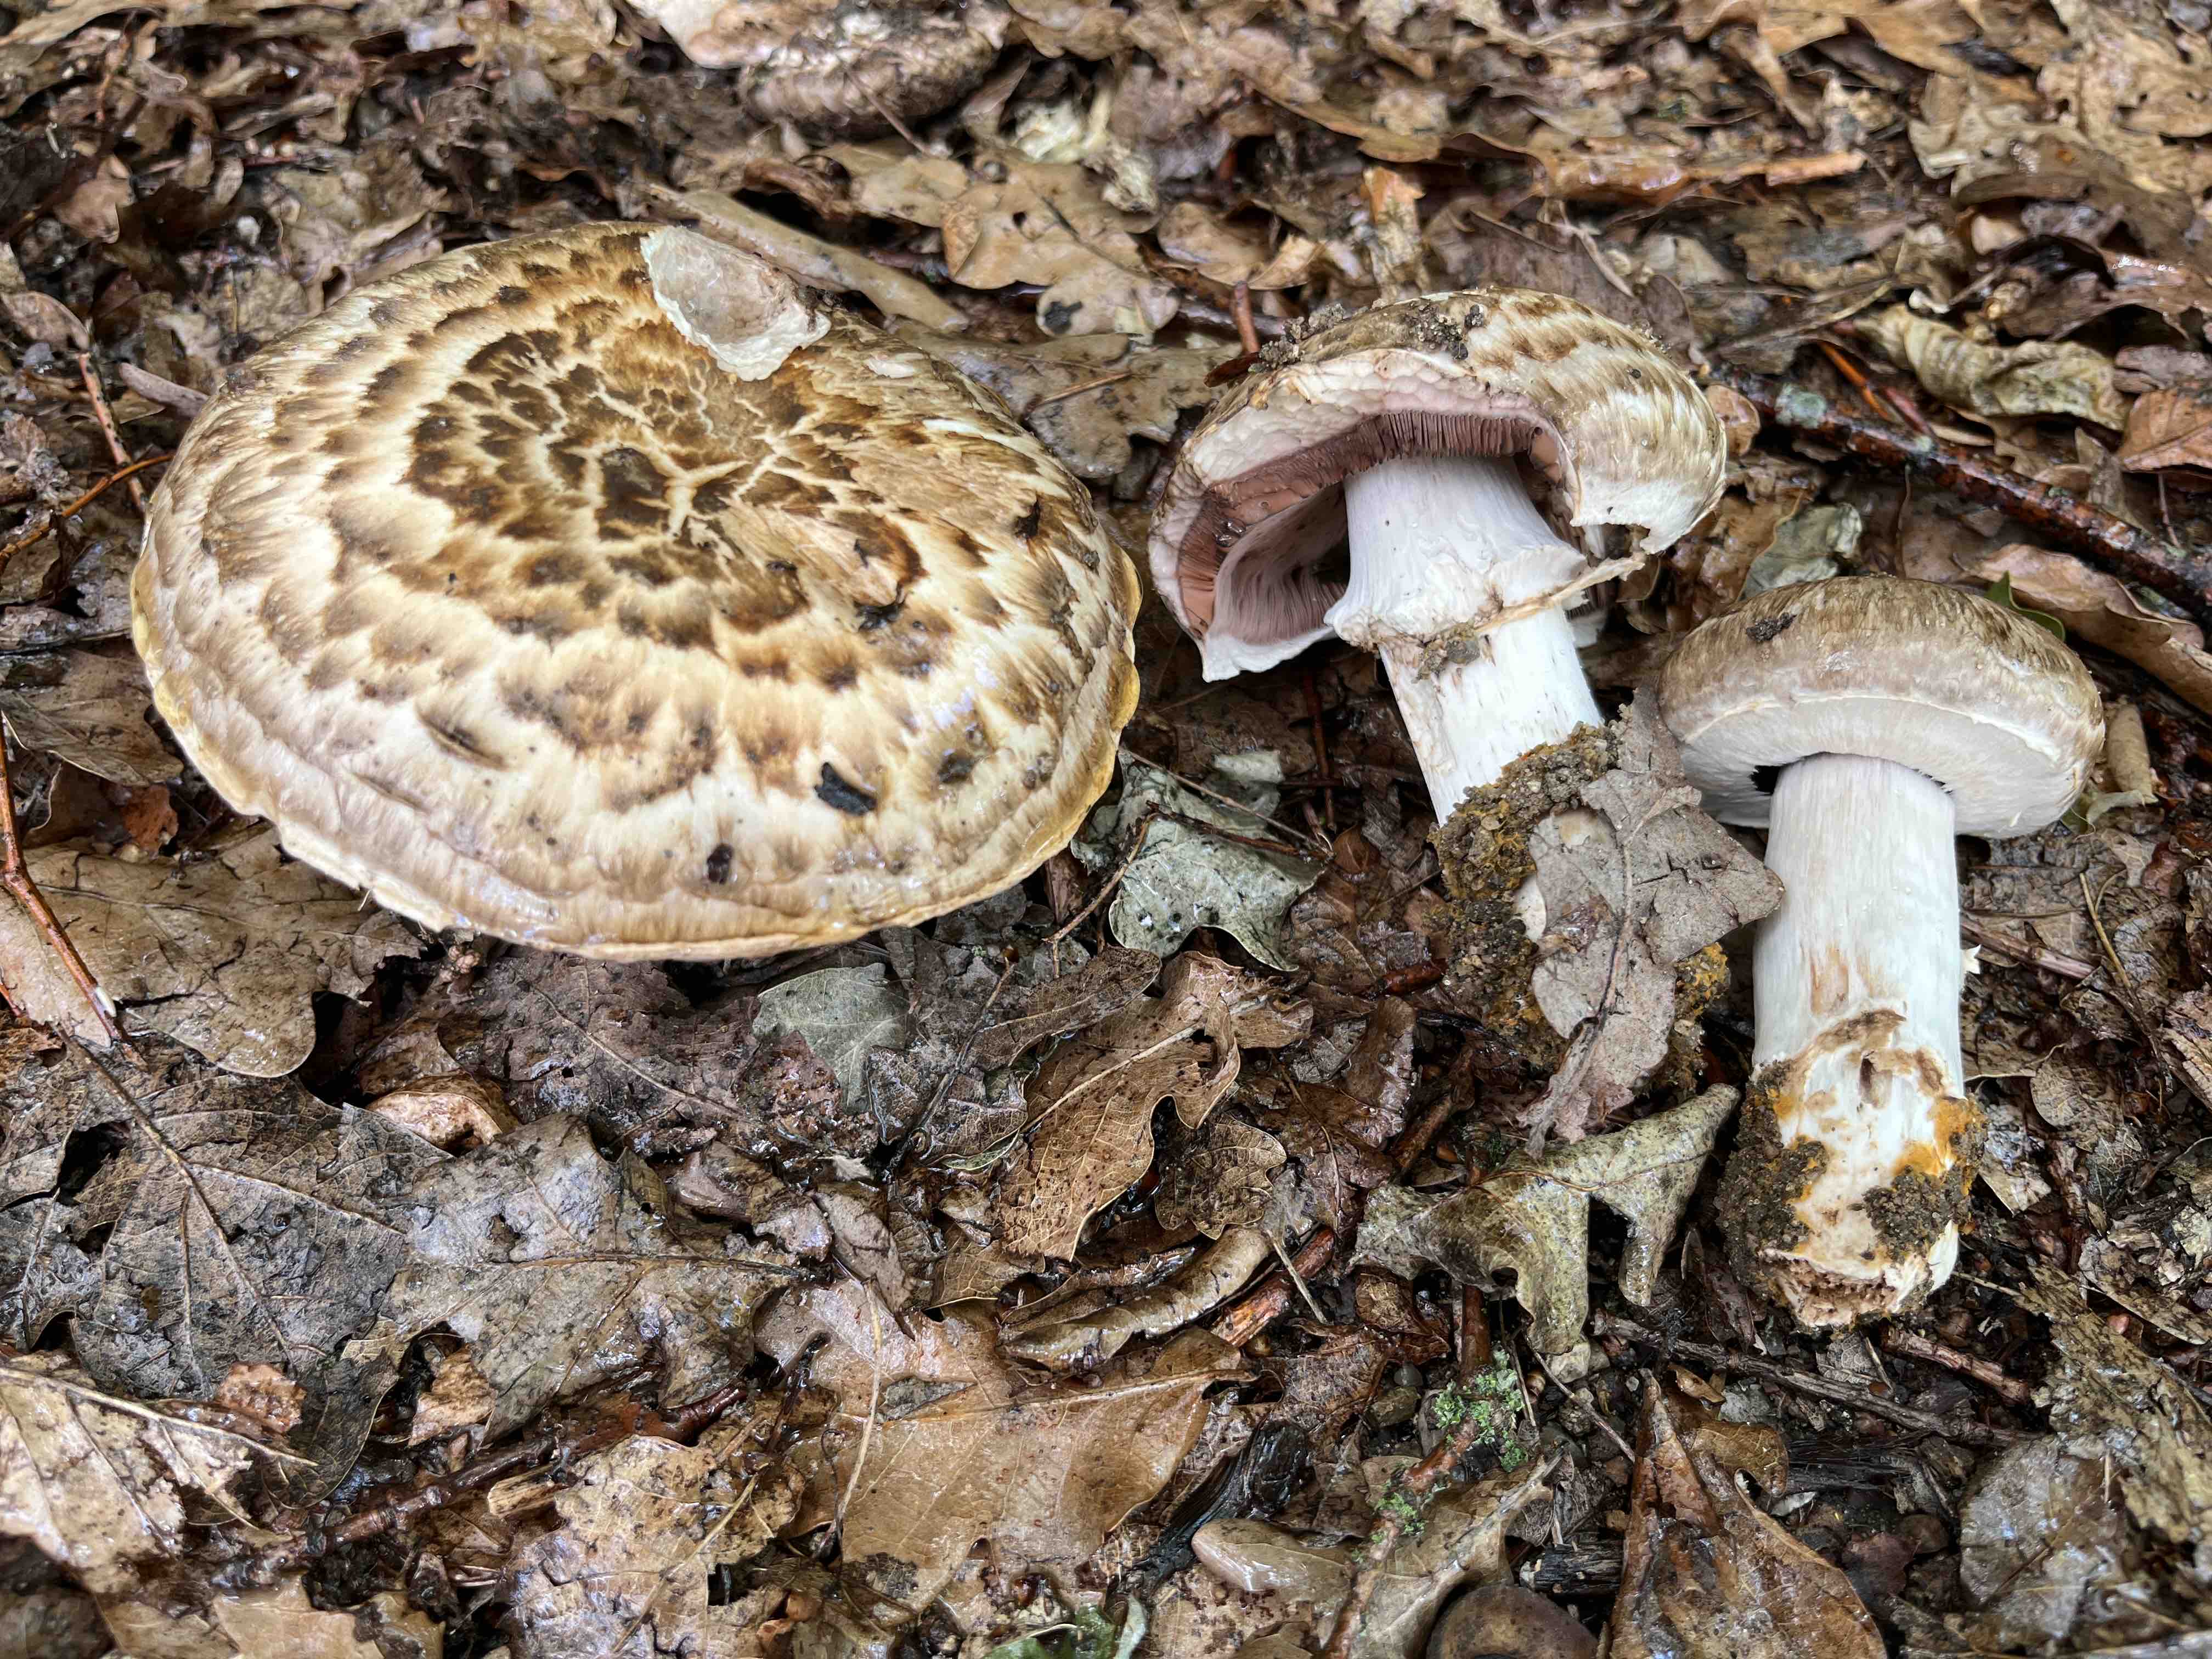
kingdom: Fungi
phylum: Basidiomycota
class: Agaricomycetes
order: Agaricales
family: Agaricaceae
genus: Agaricus
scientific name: Agaricus subperonatus
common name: knippe-champignon
